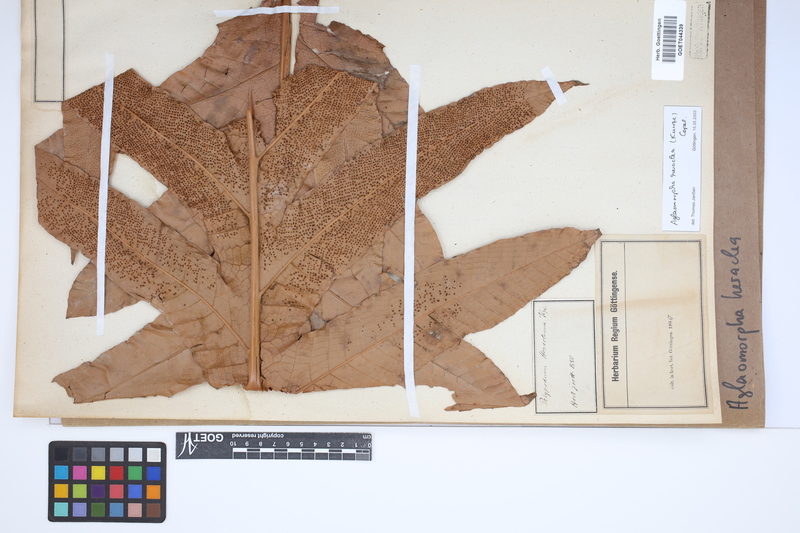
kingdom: Plantae
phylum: Tracheophyta
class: Polypodiopsida
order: Polypodiales
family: Polypodiaceae
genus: Drynaria
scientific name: Drynaria heraclea
